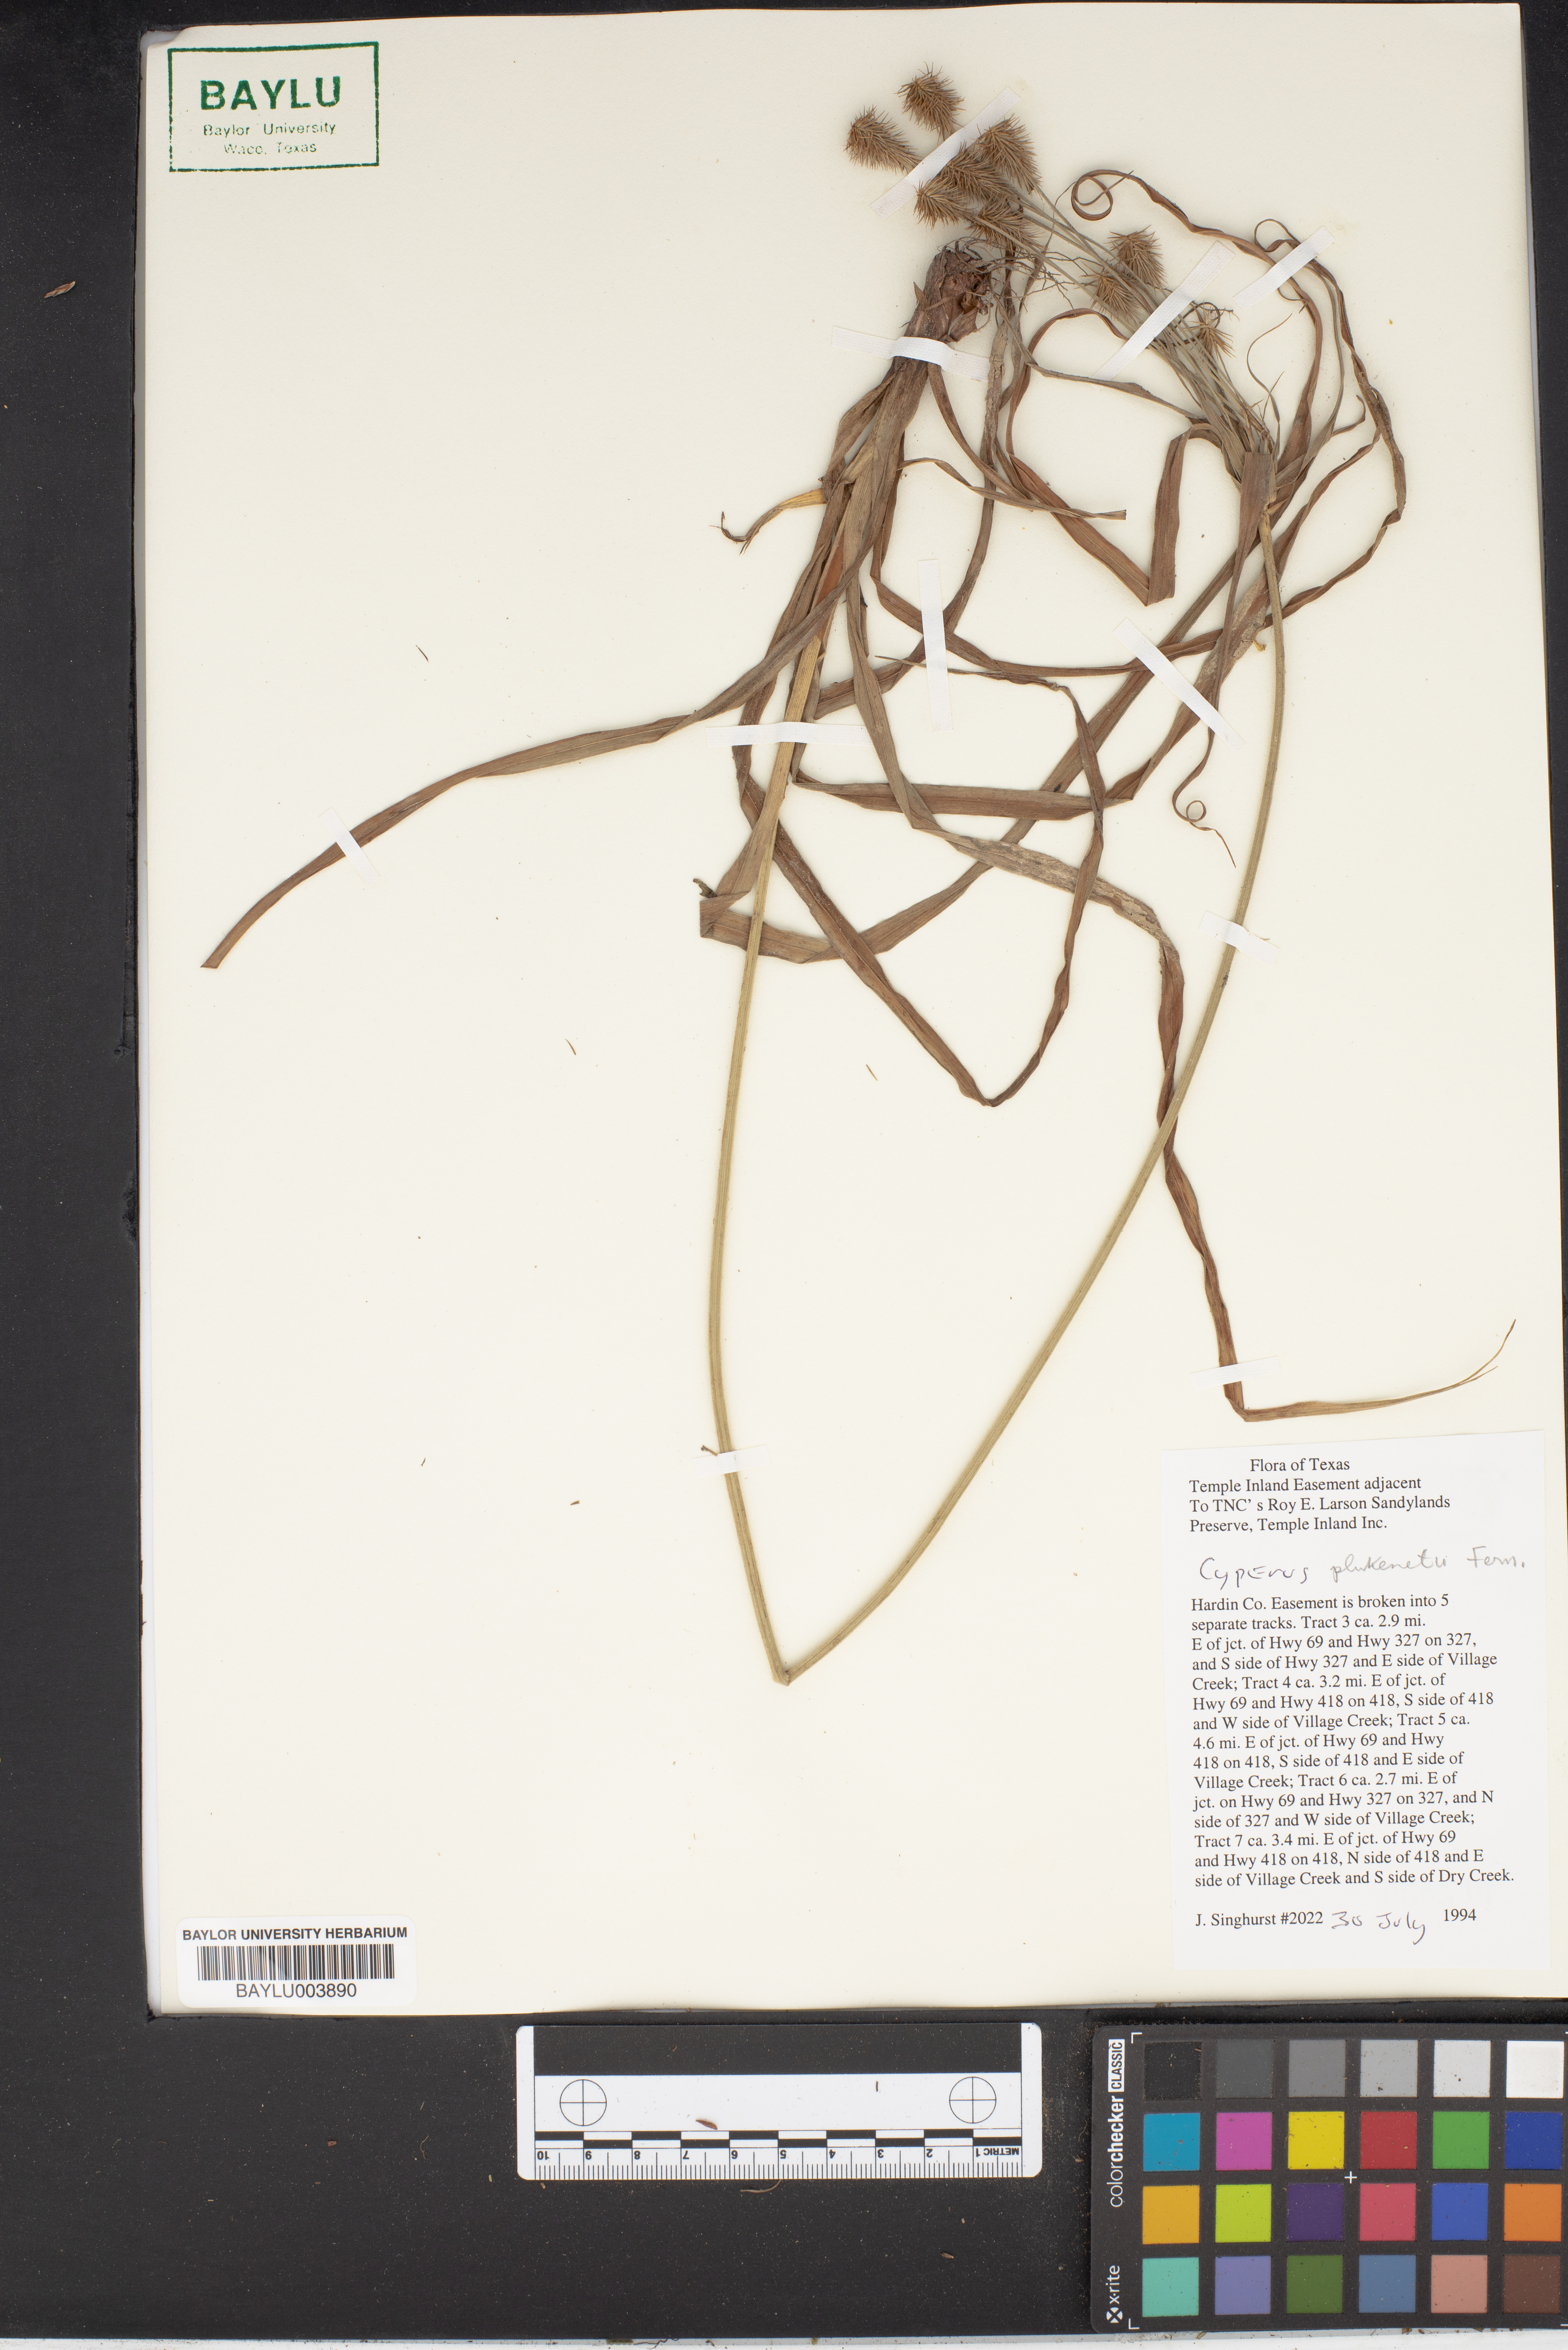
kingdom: Plantae
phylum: Tracheophyta
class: Liliopsida
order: Poales
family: Cyperaceae
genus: Cyperus
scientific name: Cyperus plukenetii
